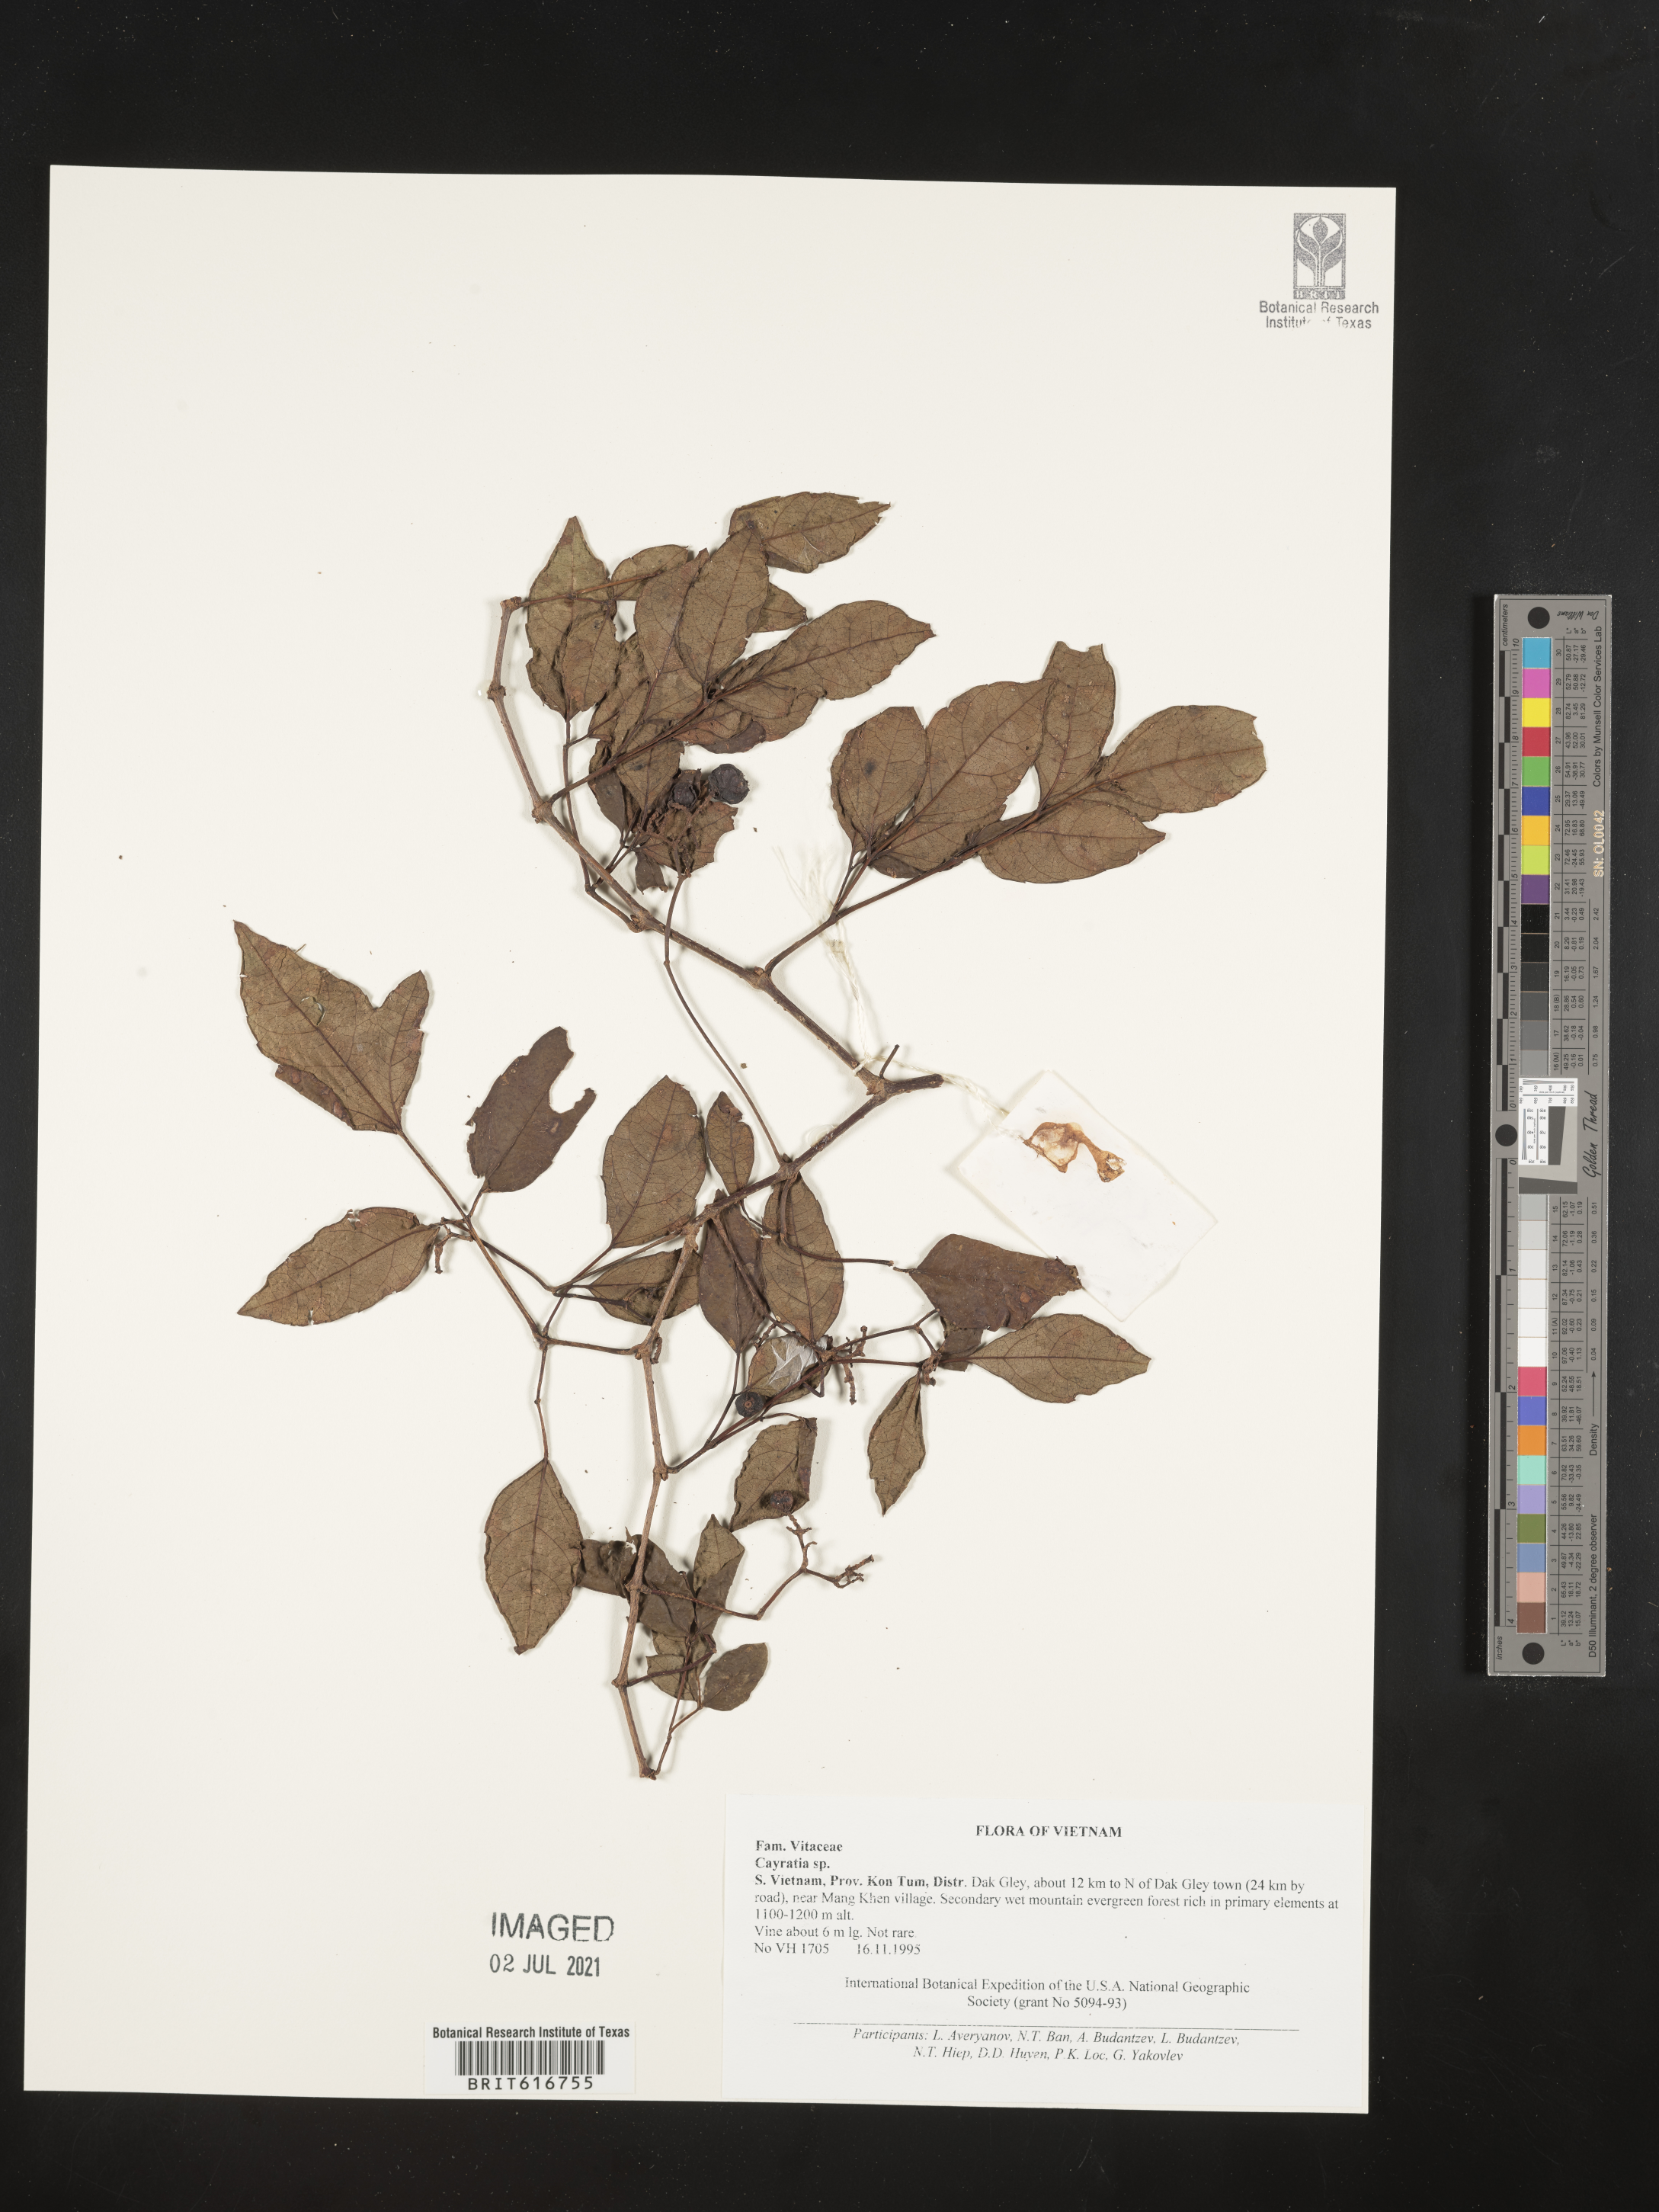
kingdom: Plantae
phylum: Tracheophyta
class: Magnoliopsida
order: Vitales
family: Vitaceae
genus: Cayratia
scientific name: Cayratia
